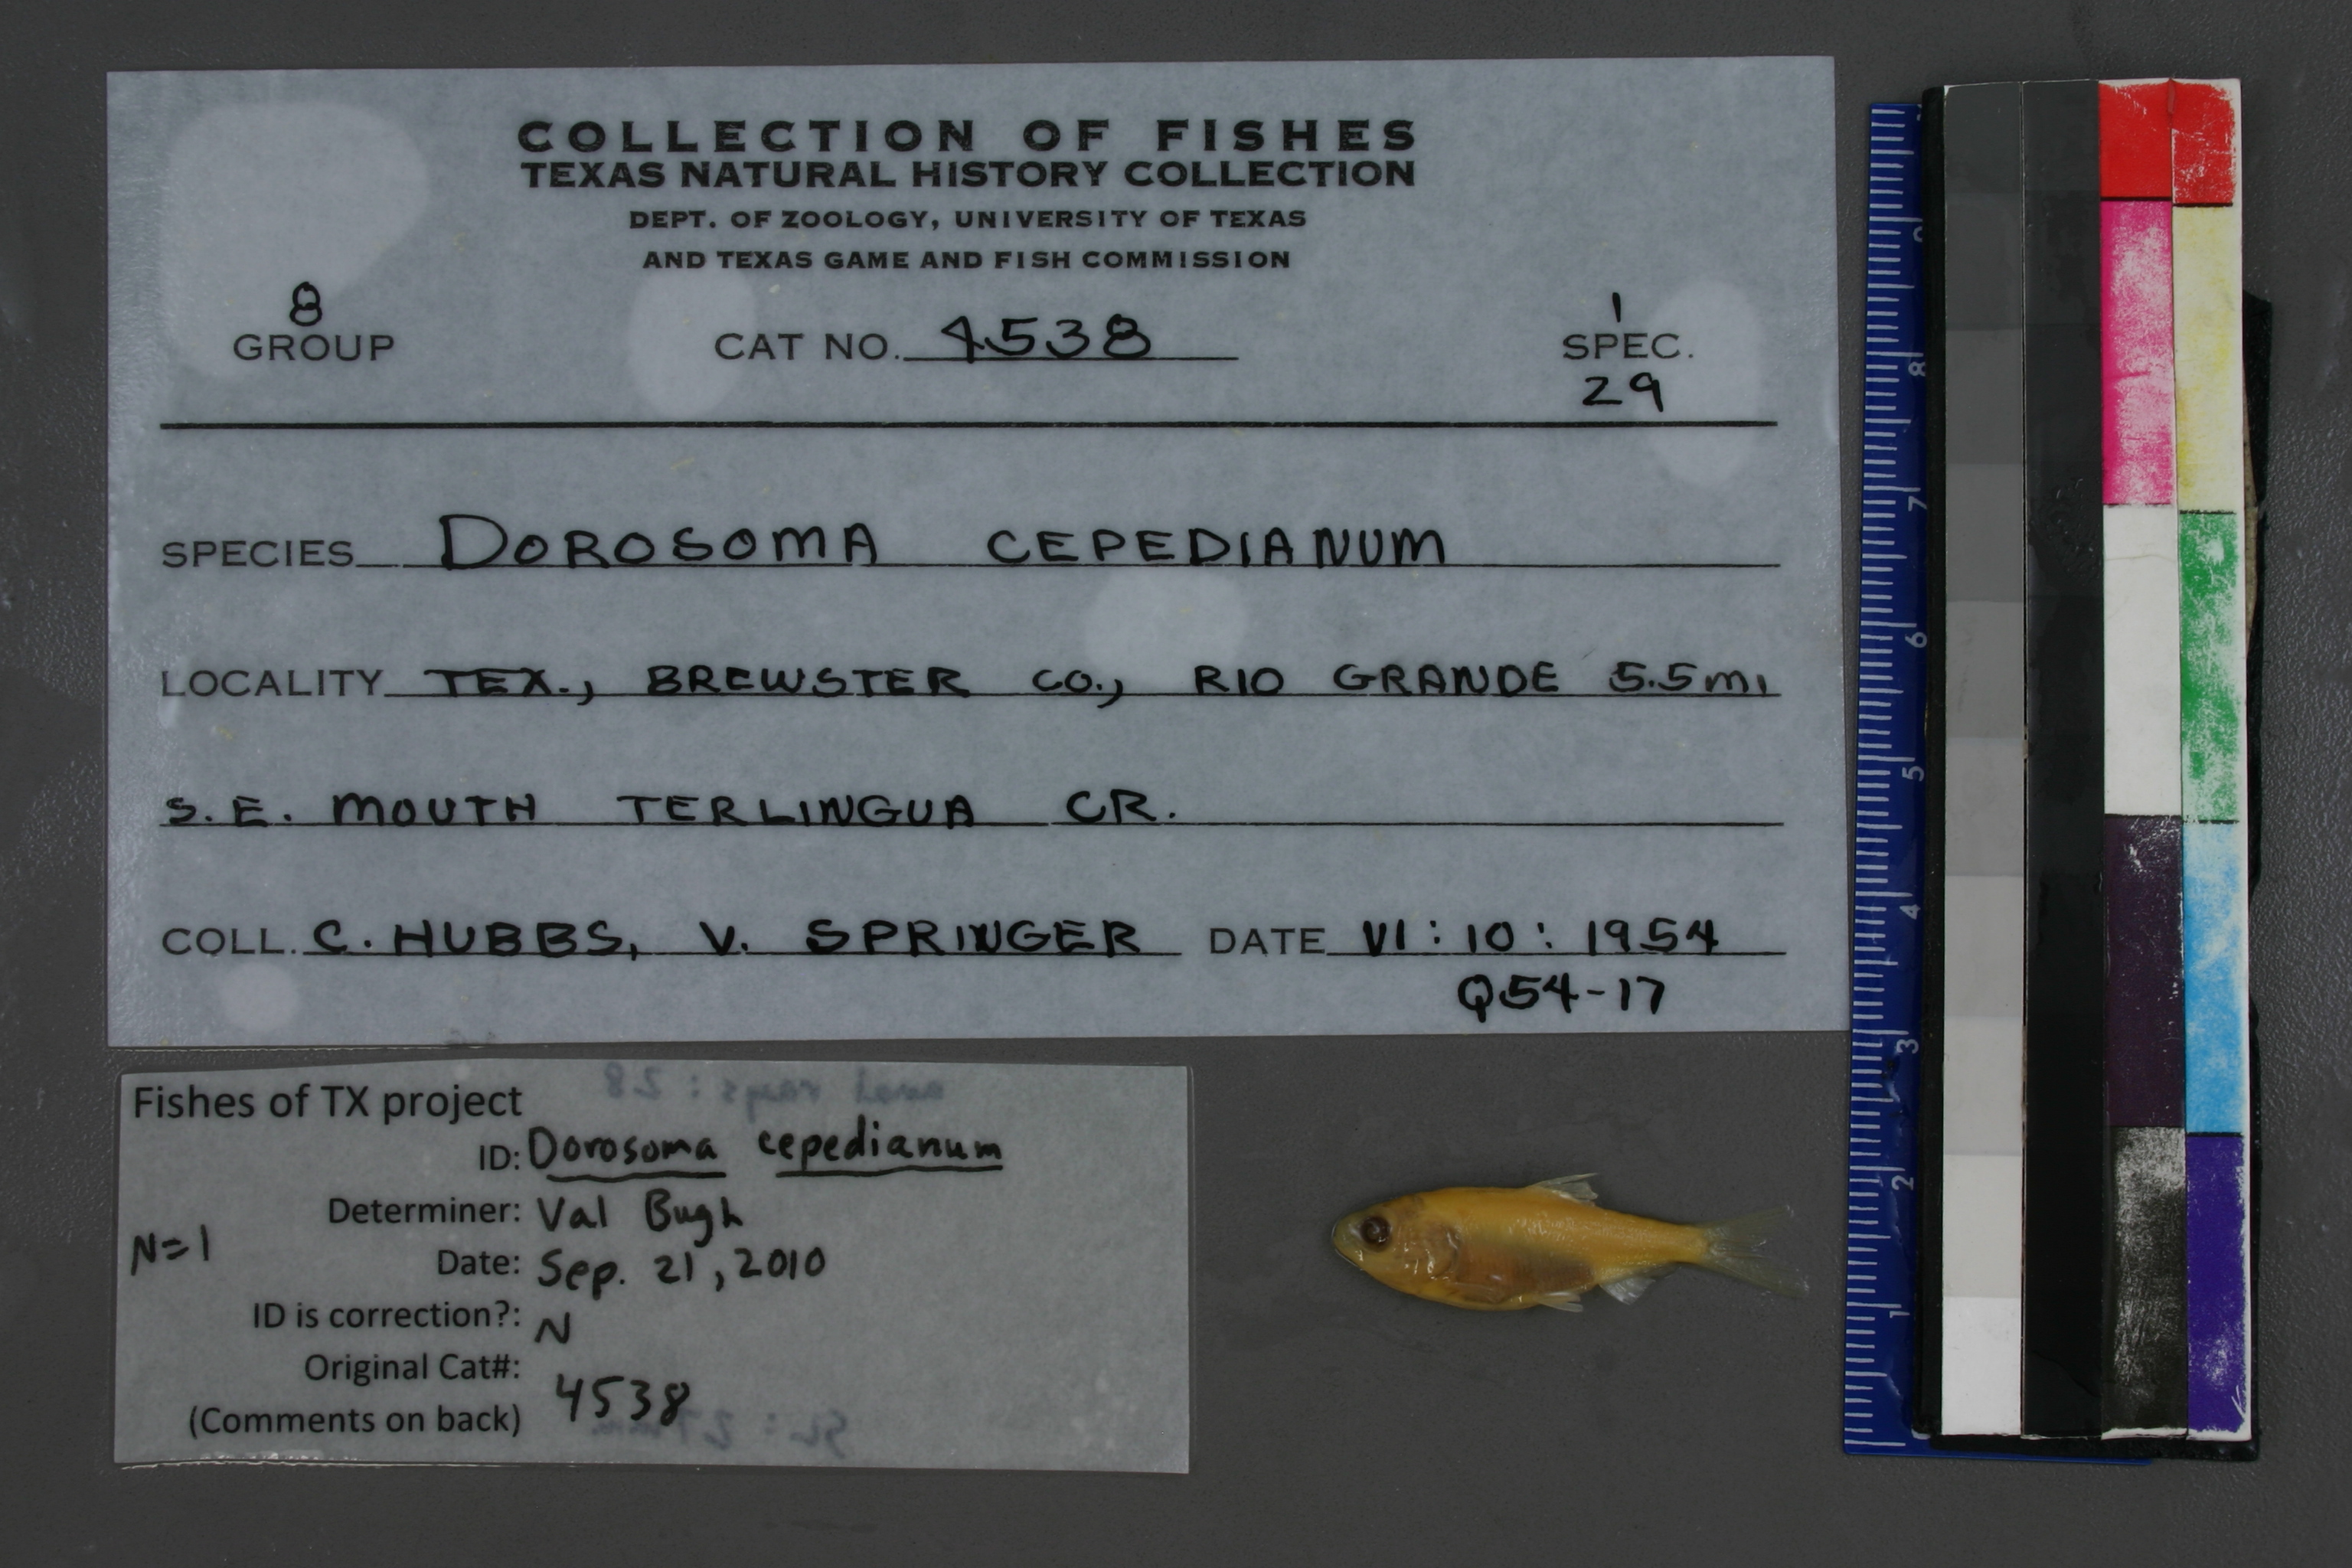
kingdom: Animalia
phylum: Chordata
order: Clupeiformes
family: Clupeidae
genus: Dorosoma
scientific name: Dorosoma cepedianum
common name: Gizzard shad
